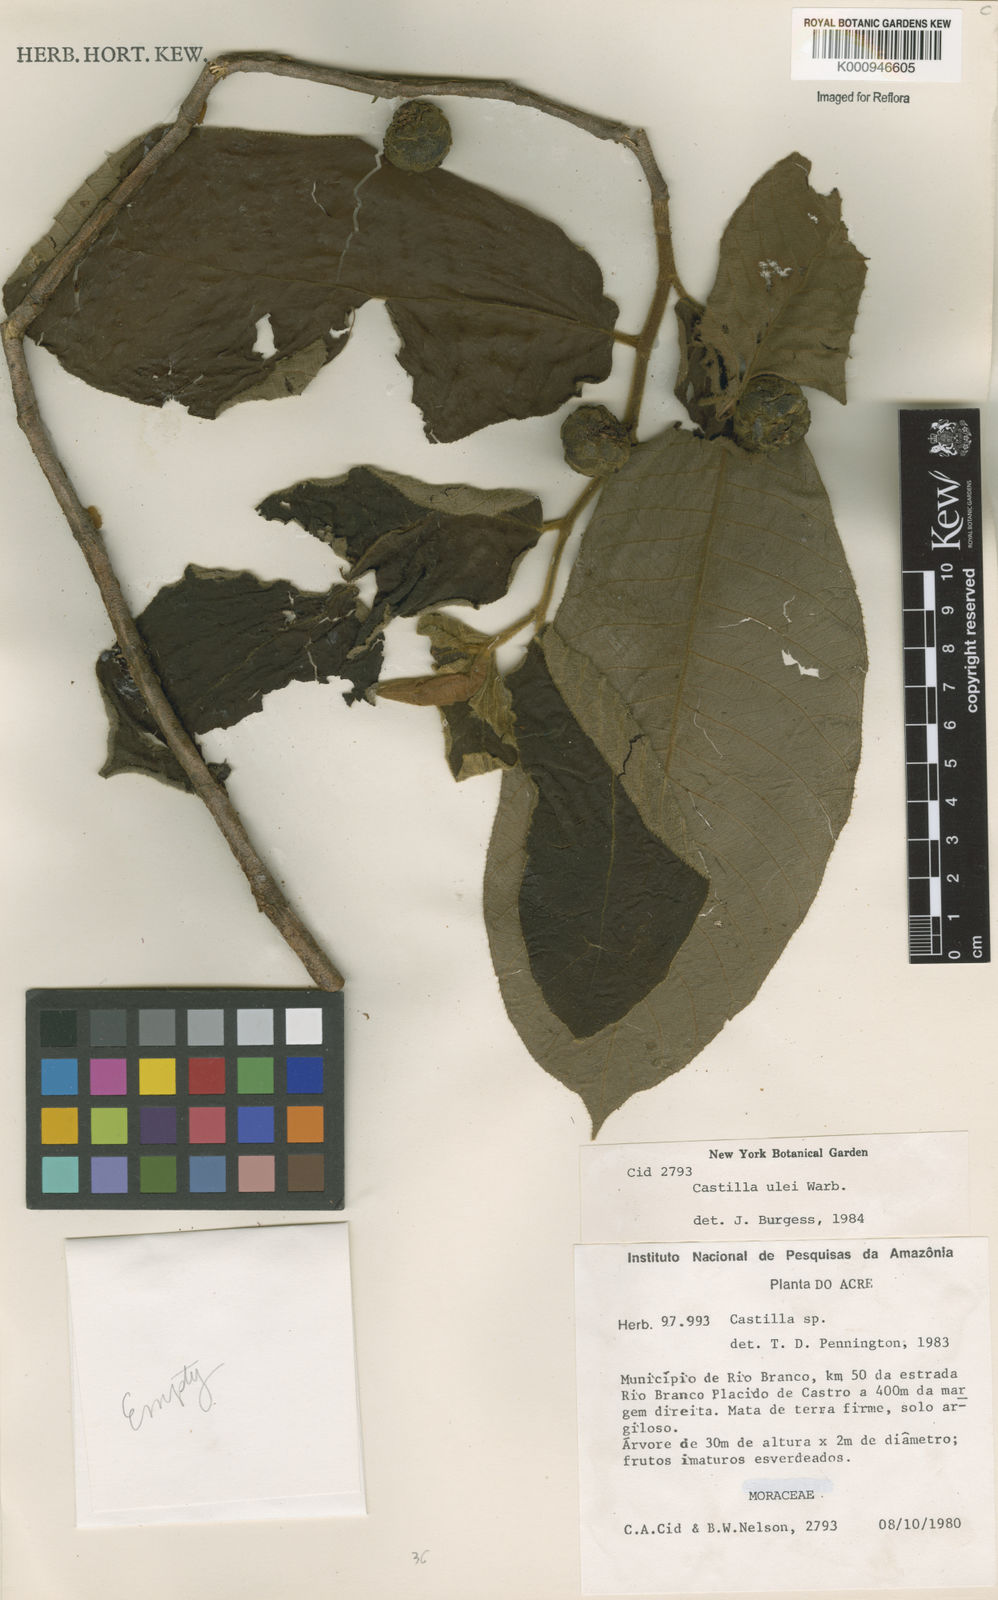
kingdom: Plantae
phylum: Tracheophyta
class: Magnoliopsida
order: Rosales
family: Moraceae
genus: Castilla
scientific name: Castilla ulei
